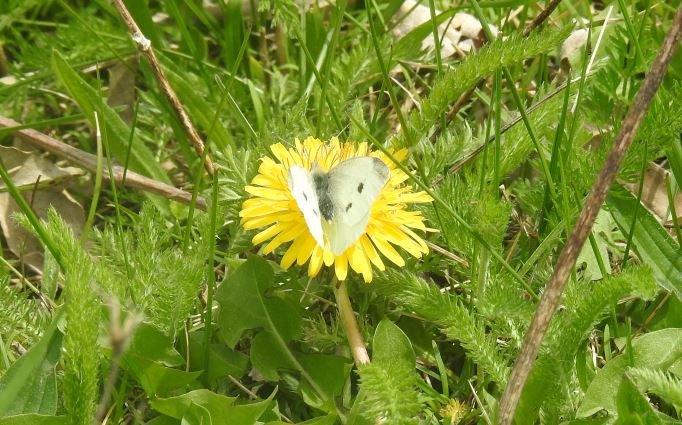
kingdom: Animalia
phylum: Arthropoda
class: Insecta
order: Lepidoptera
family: Pieridae
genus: Pieris
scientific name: Pieris rapae
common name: Cabbage White
